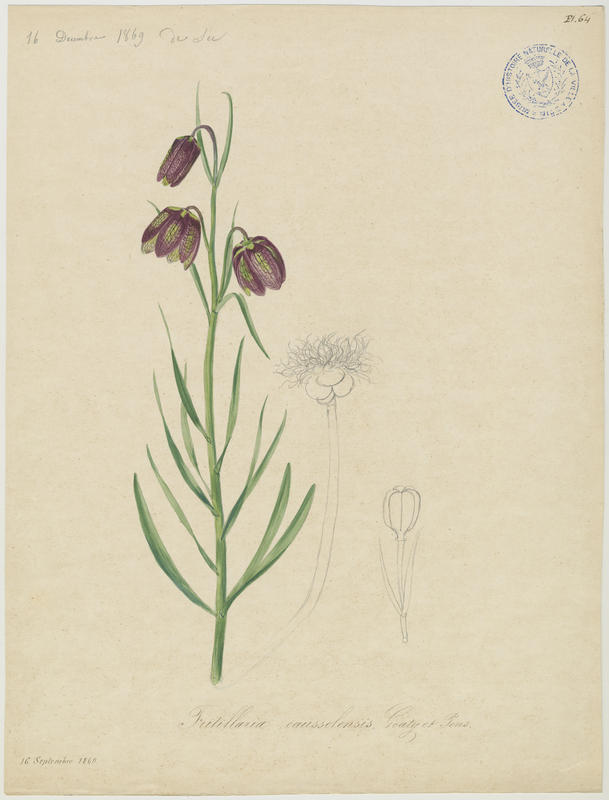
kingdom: Plantae
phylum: Tracheophyta
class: Liliopsida
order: Liliales
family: Liliaceae
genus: Fritillaria
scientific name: Fritillaria orientalis
